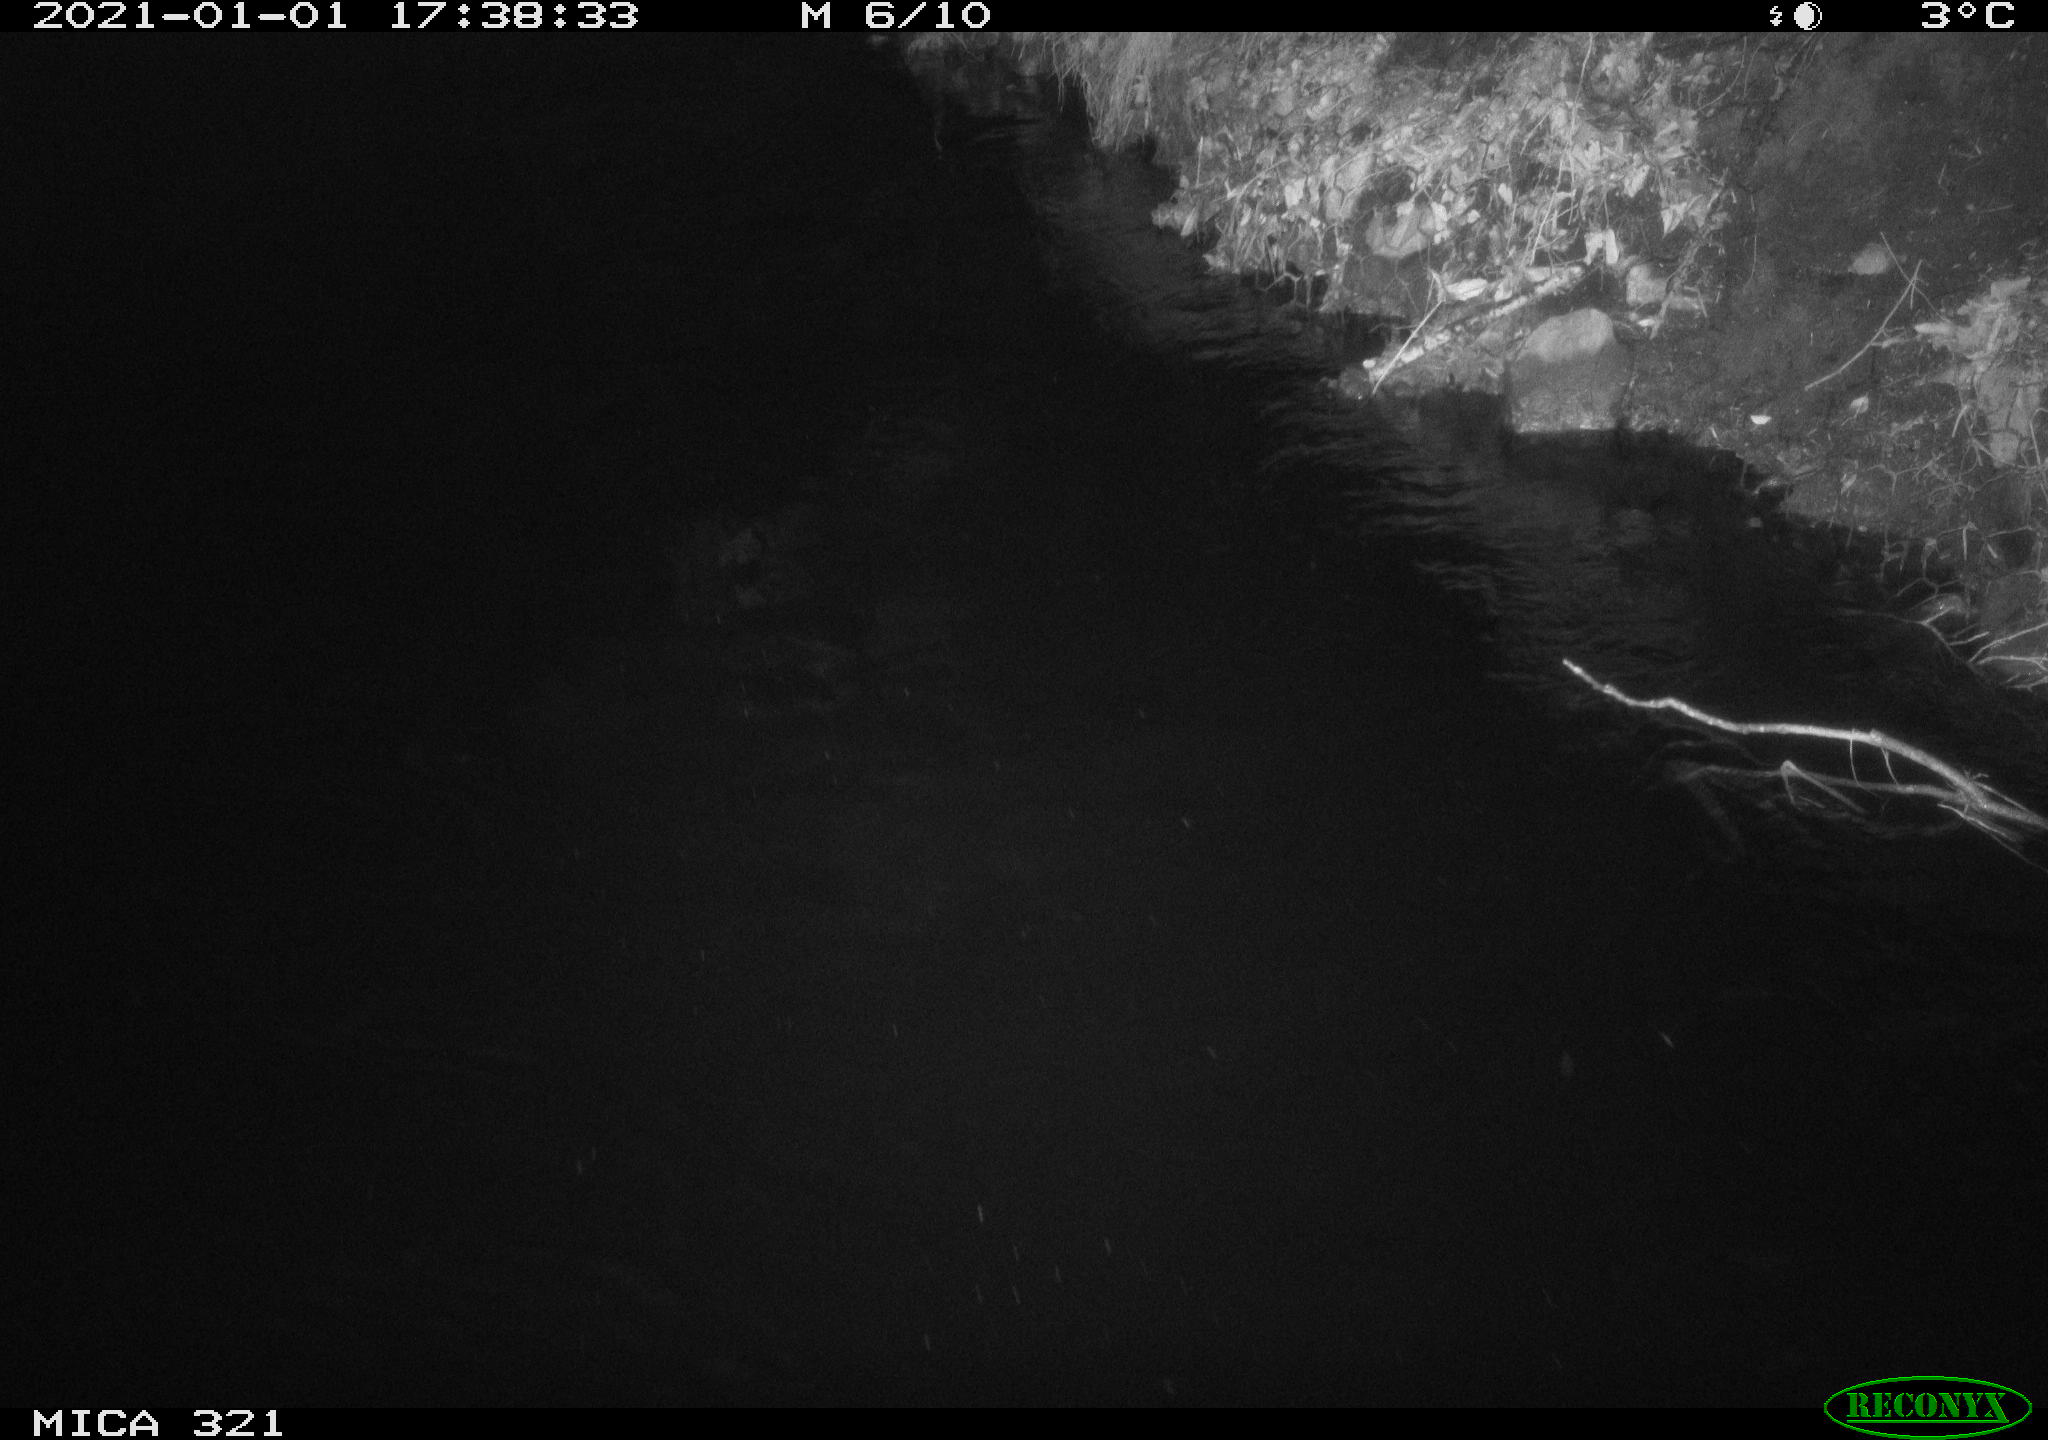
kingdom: Animalia
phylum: Chordata
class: Aves
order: Anseriformes
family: Anatidae
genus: Anas
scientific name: Anas platyrhynchos
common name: Mallard
